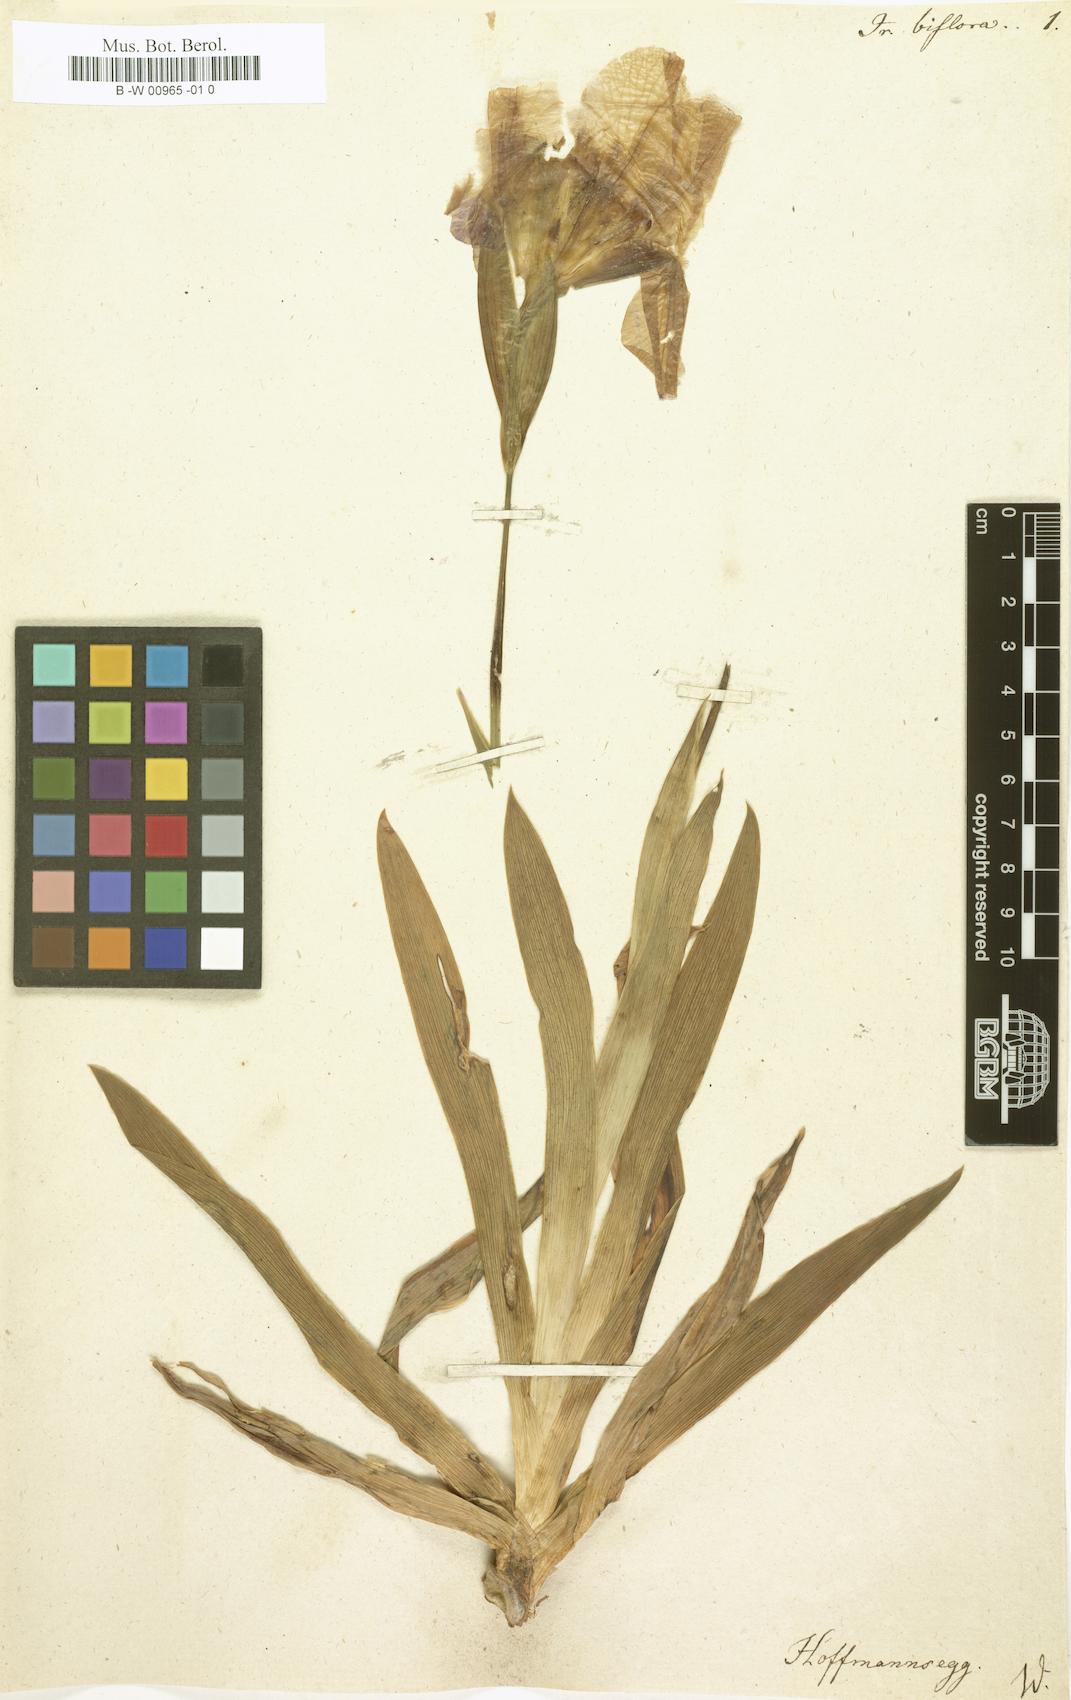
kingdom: Plantae
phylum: Tracheophyta
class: Liliopsida
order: Asparagales
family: Iridaceae
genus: Iris
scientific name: Iris aphylla
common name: Stool iris
